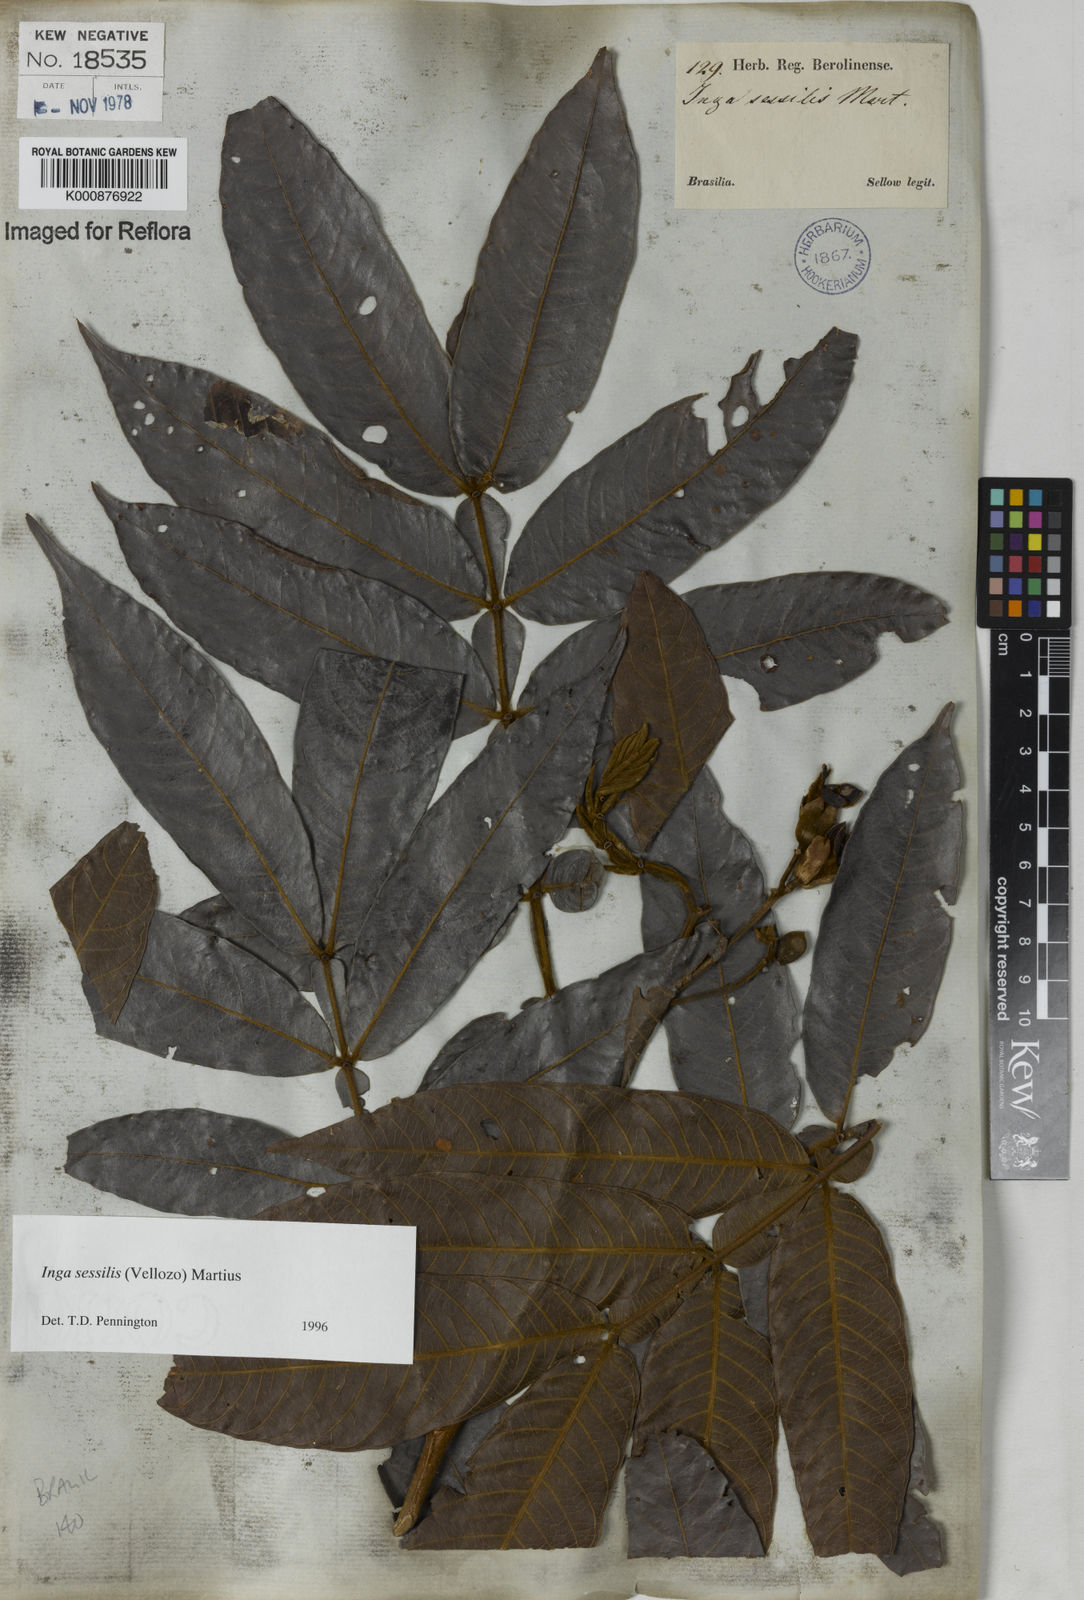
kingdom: Plantae
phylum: Tracheophyta
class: Magnoliopsida
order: Fabales
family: Fabaceae
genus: Inga
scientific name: Inga sessilis
